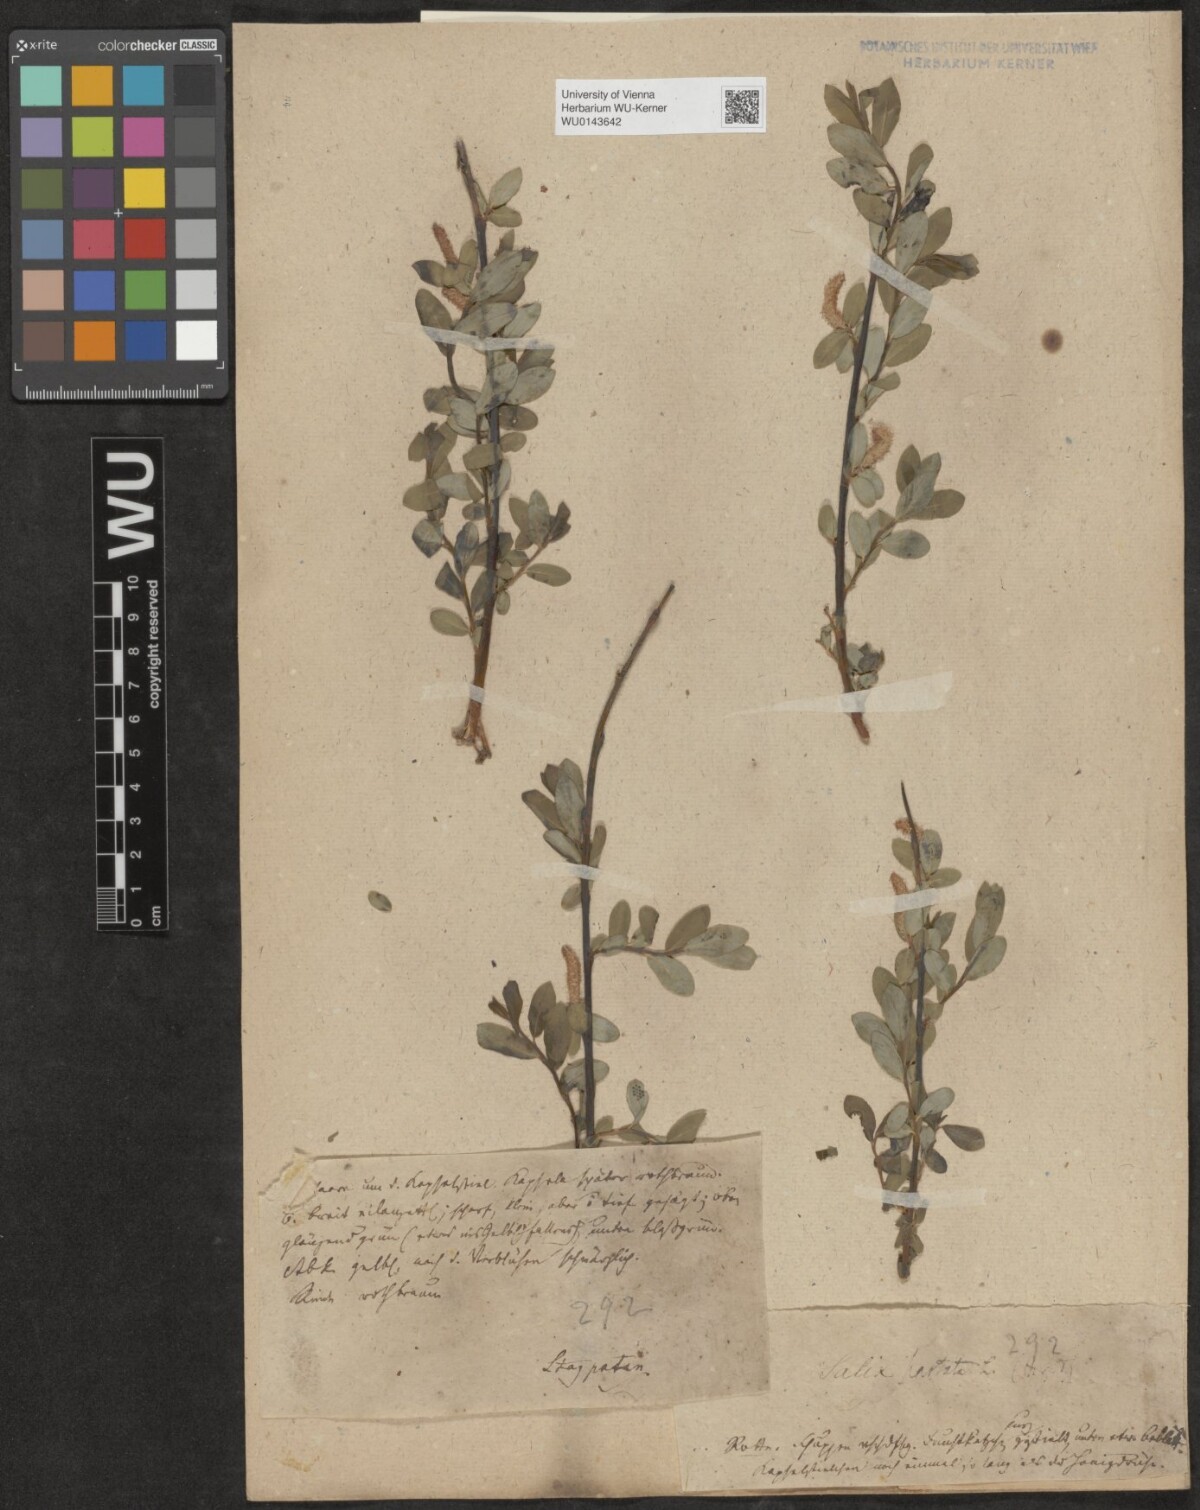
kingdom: Plantae
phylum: Tracheophyta
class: Magnoliopsida
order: Malpighiales
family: Salicaceae
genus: Salix
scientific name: Salix
